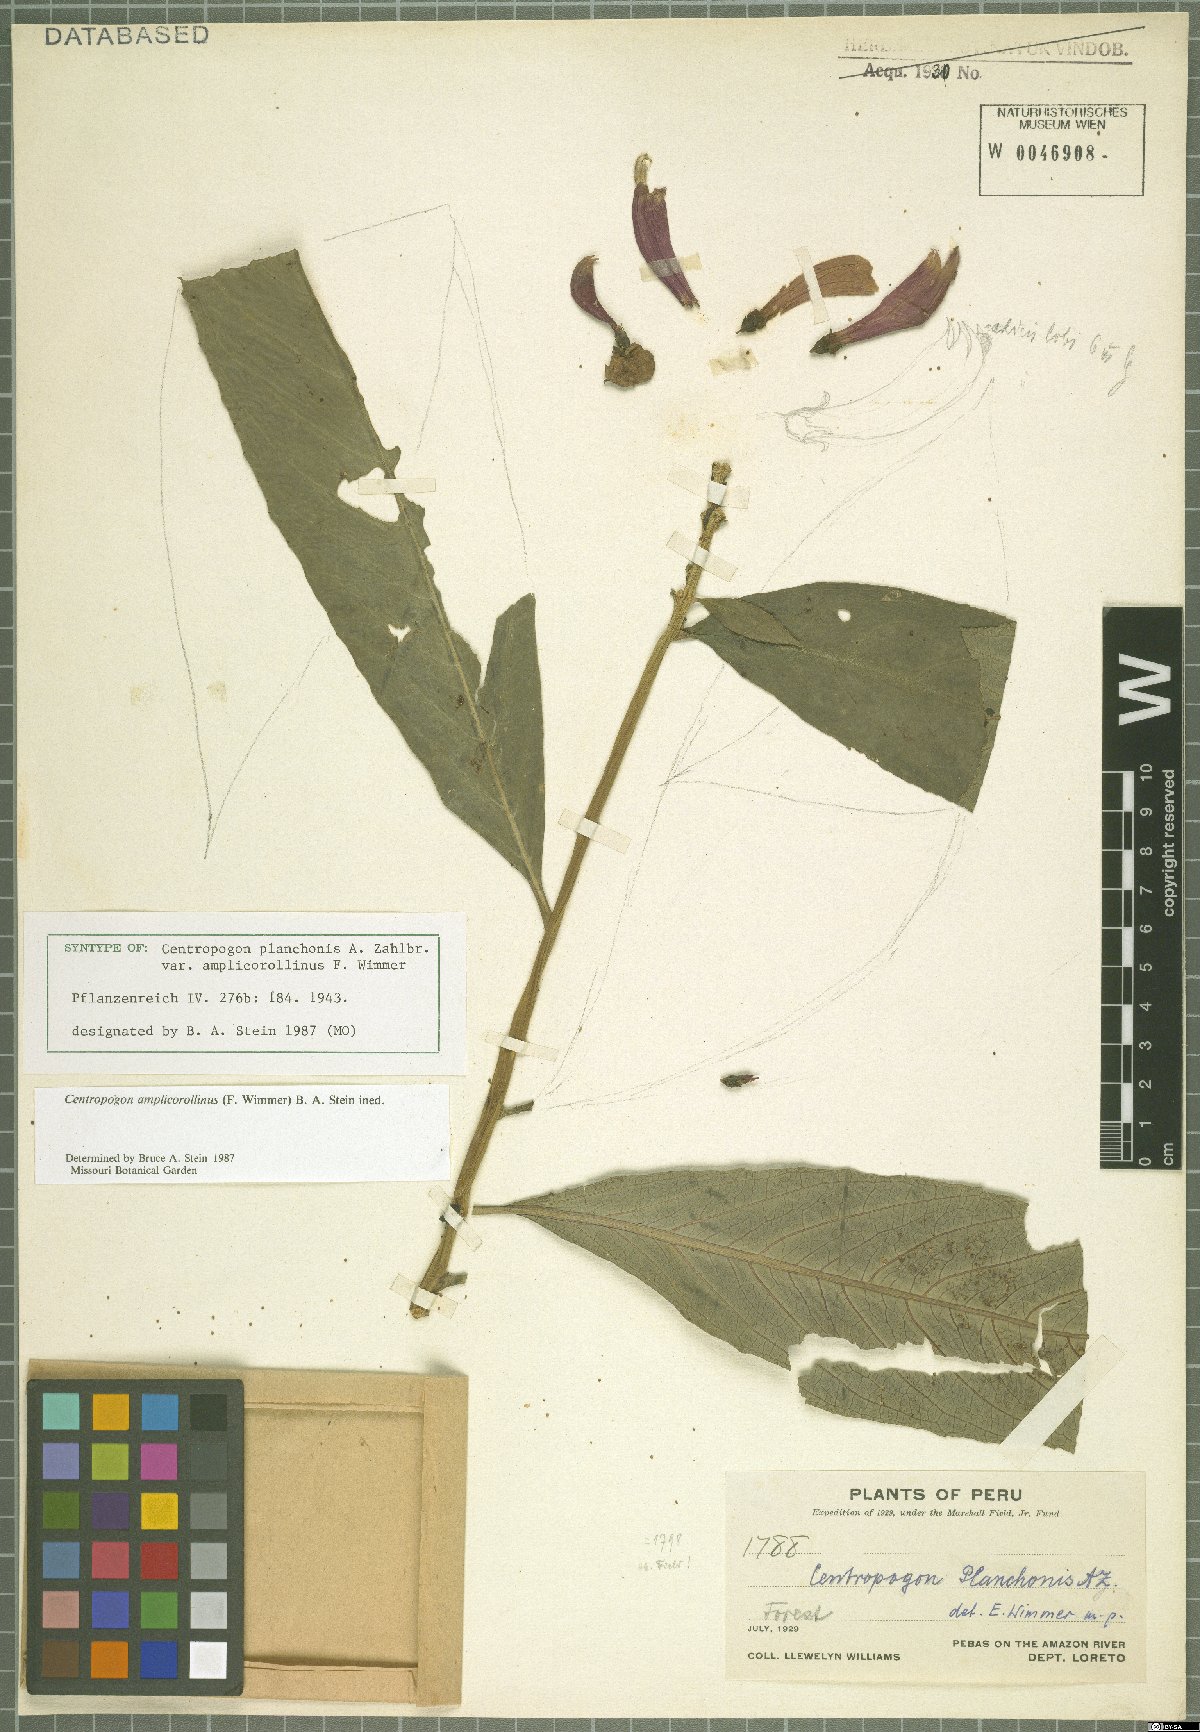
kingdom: Plantae
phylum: Tracheophyta
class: Magnoliopsida
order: Asterales
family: Campanulaceae
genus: Centropogon
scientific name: Centropogon amplicorollinus
